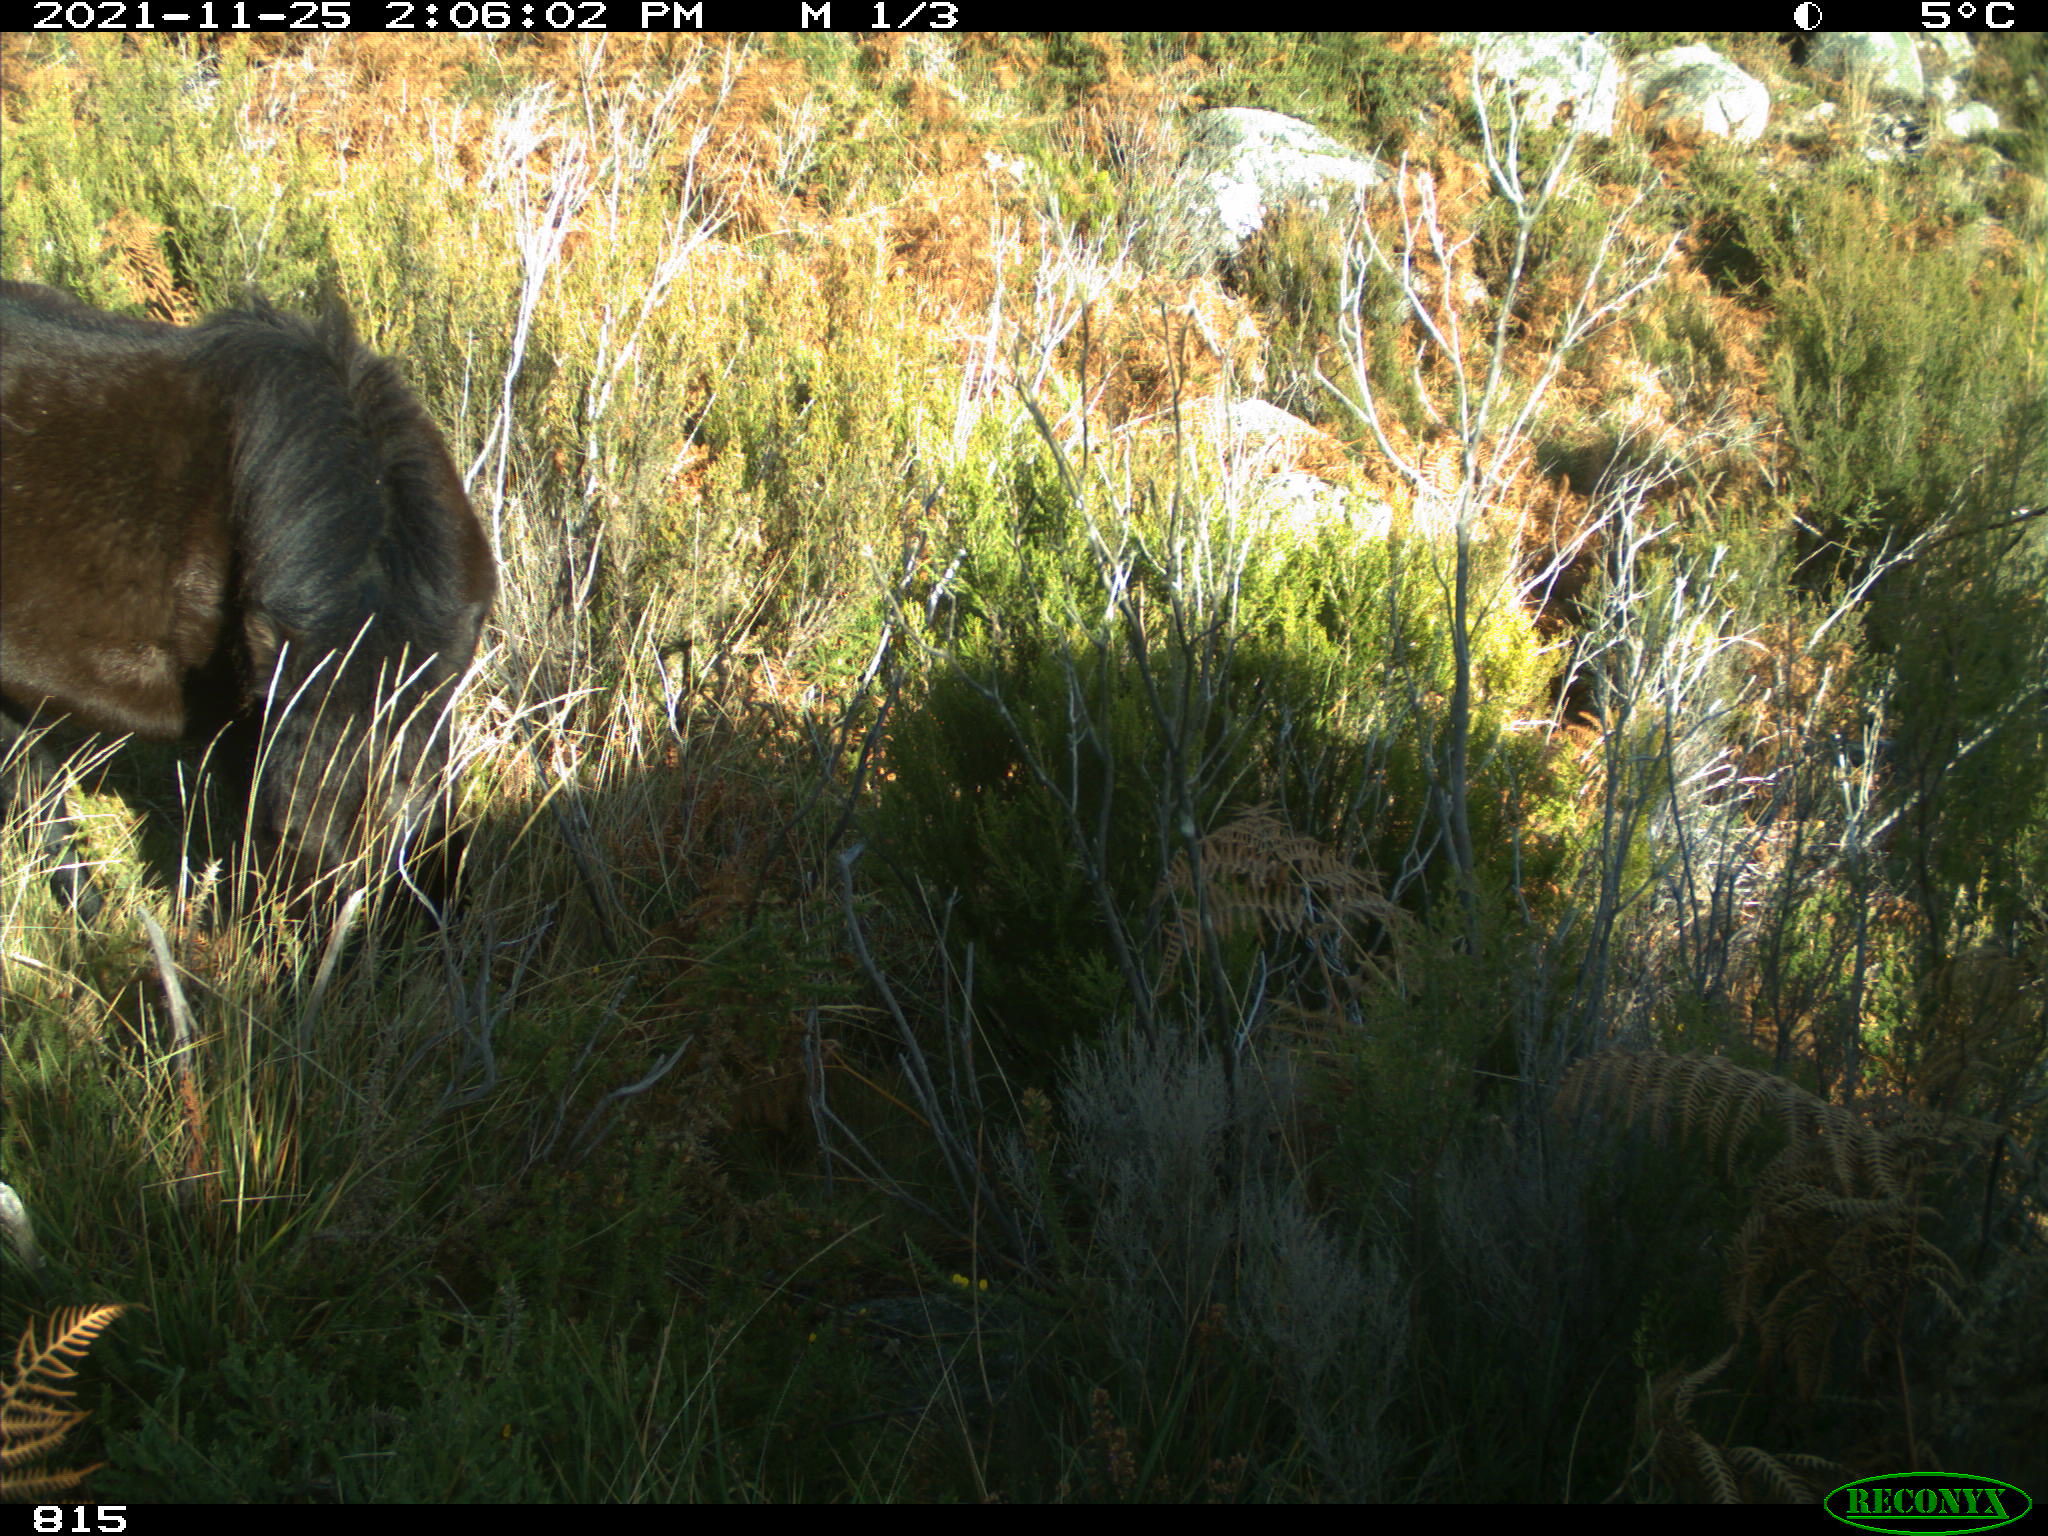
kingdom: Animalia
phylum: Chordata
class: Mammalia
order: Perissodactyla
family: Equidae
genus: Equus
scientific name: Equus caballus
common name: Horse
